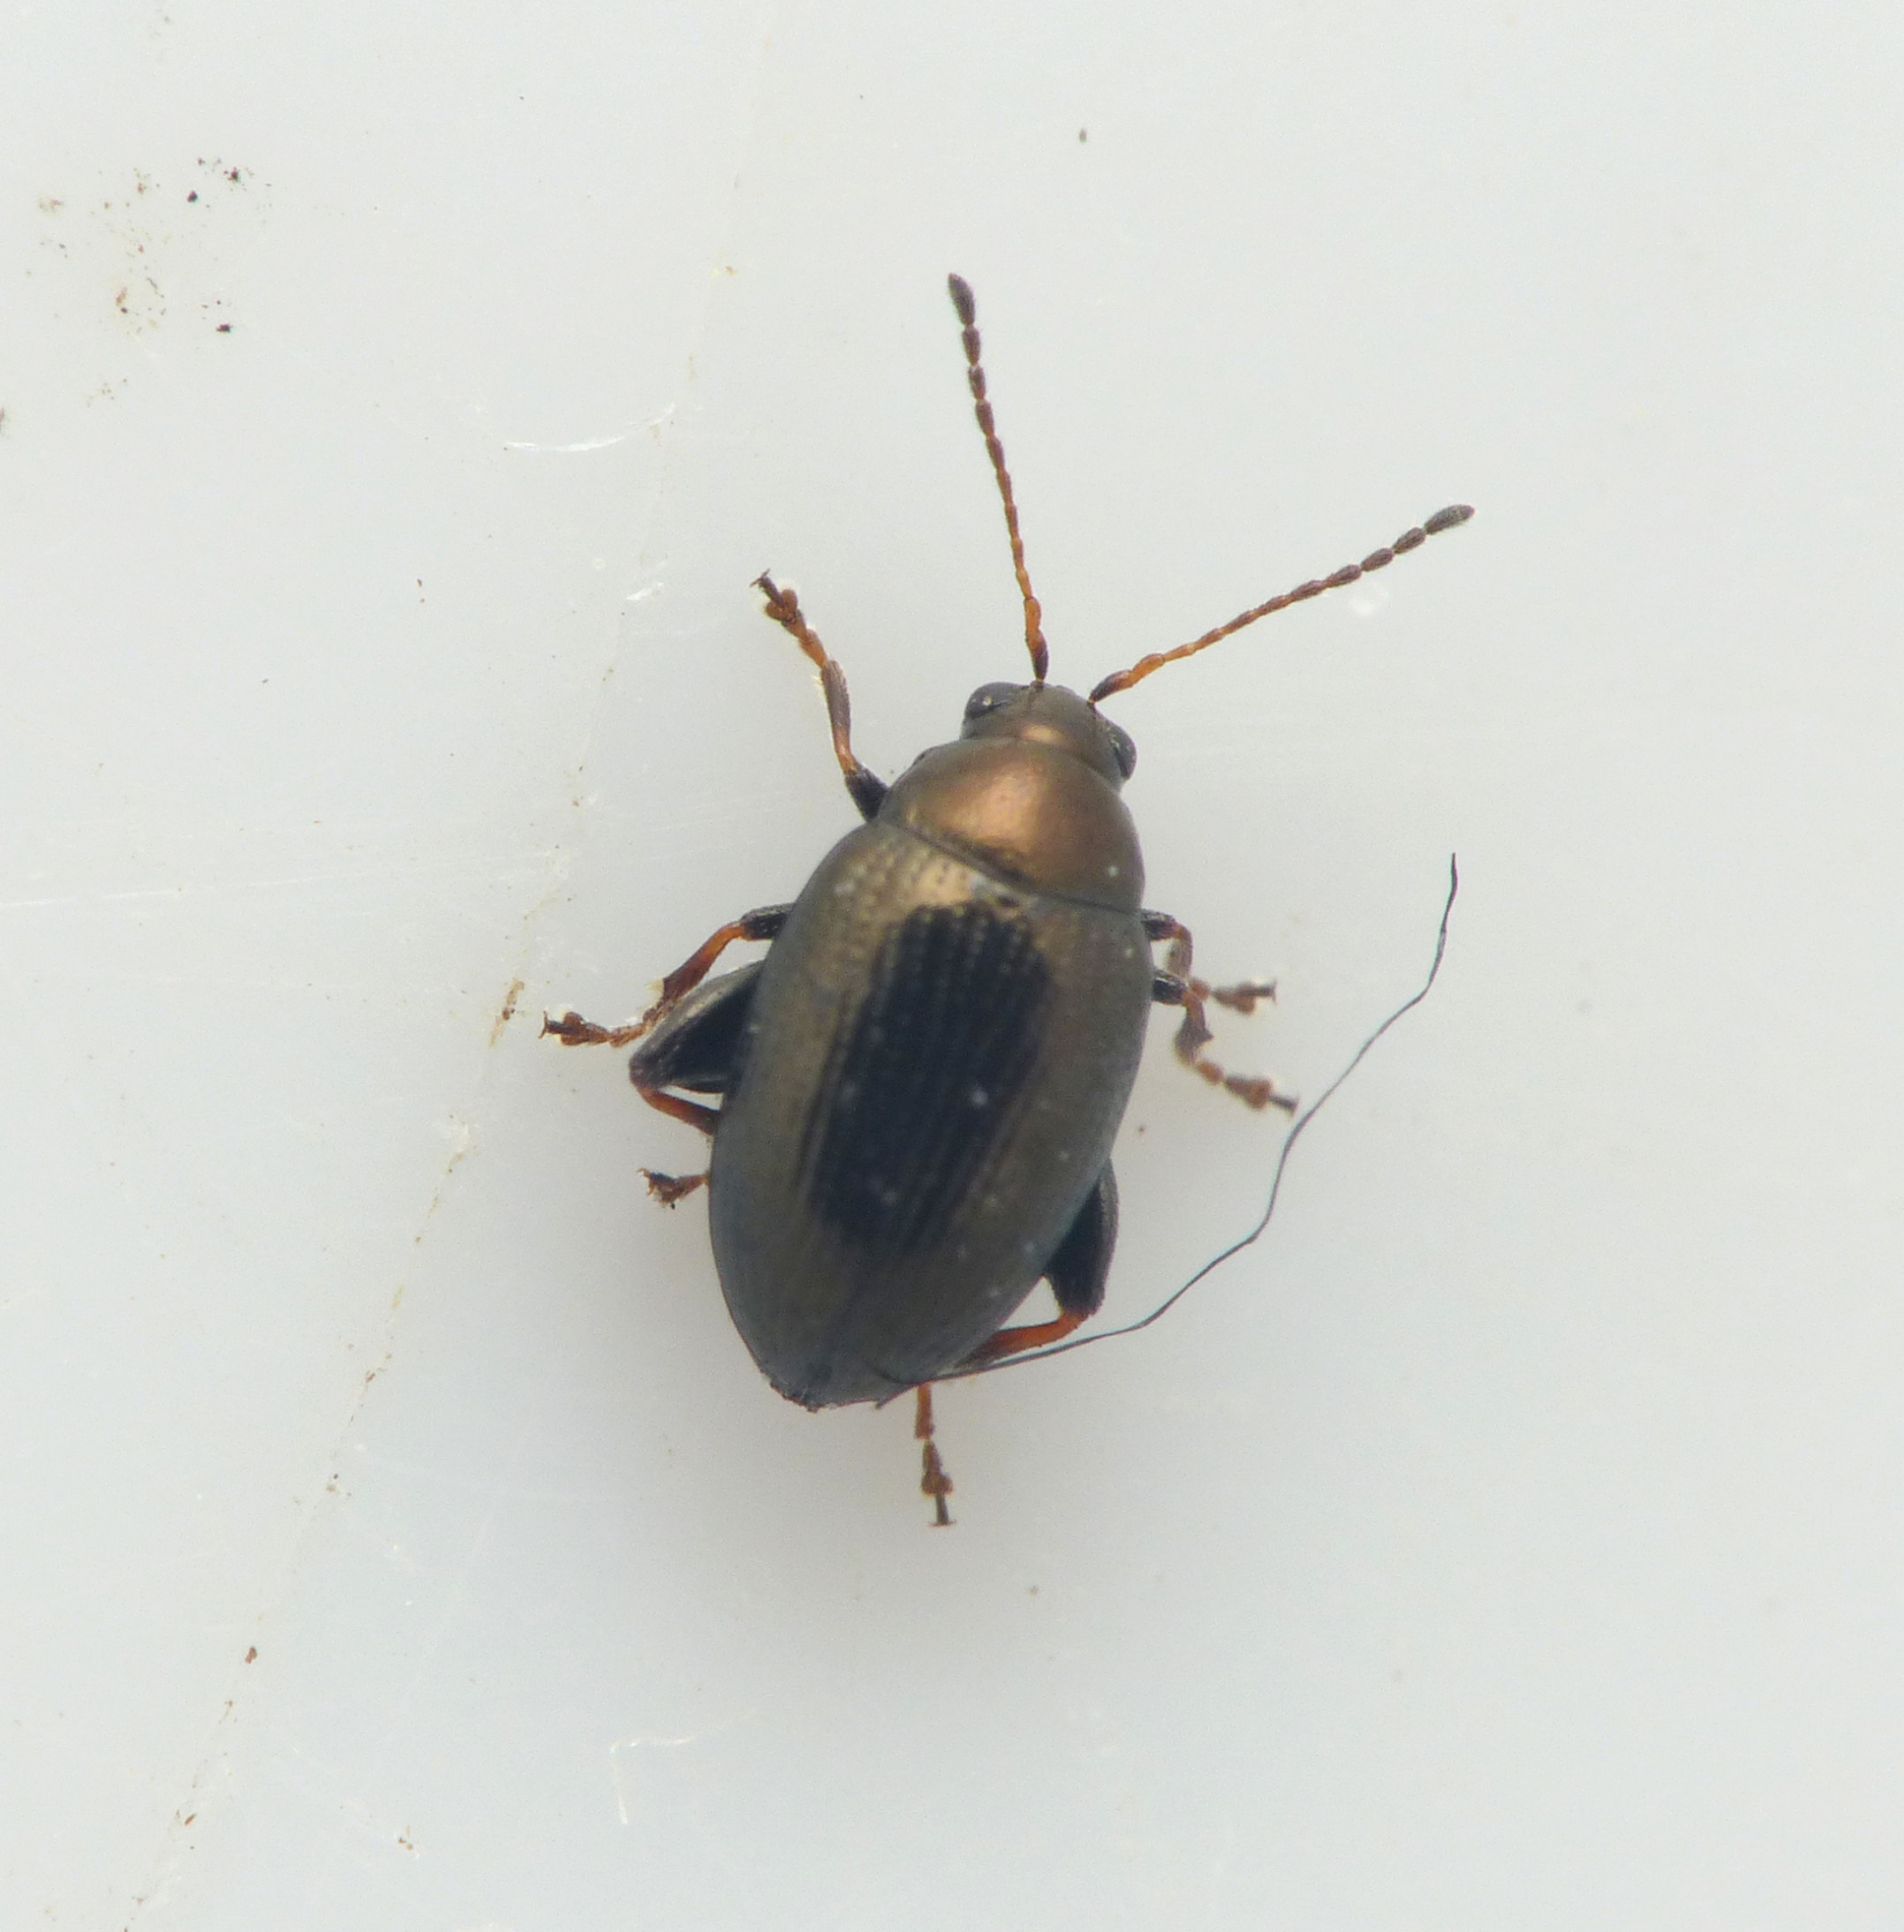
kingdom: Animalia
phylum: Arthropoda
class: Insecta
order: Coleoptera
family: Chrysomelidae
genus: Chaetocnema
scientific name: Chaetocnema concinna
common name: Bedejordloppe
